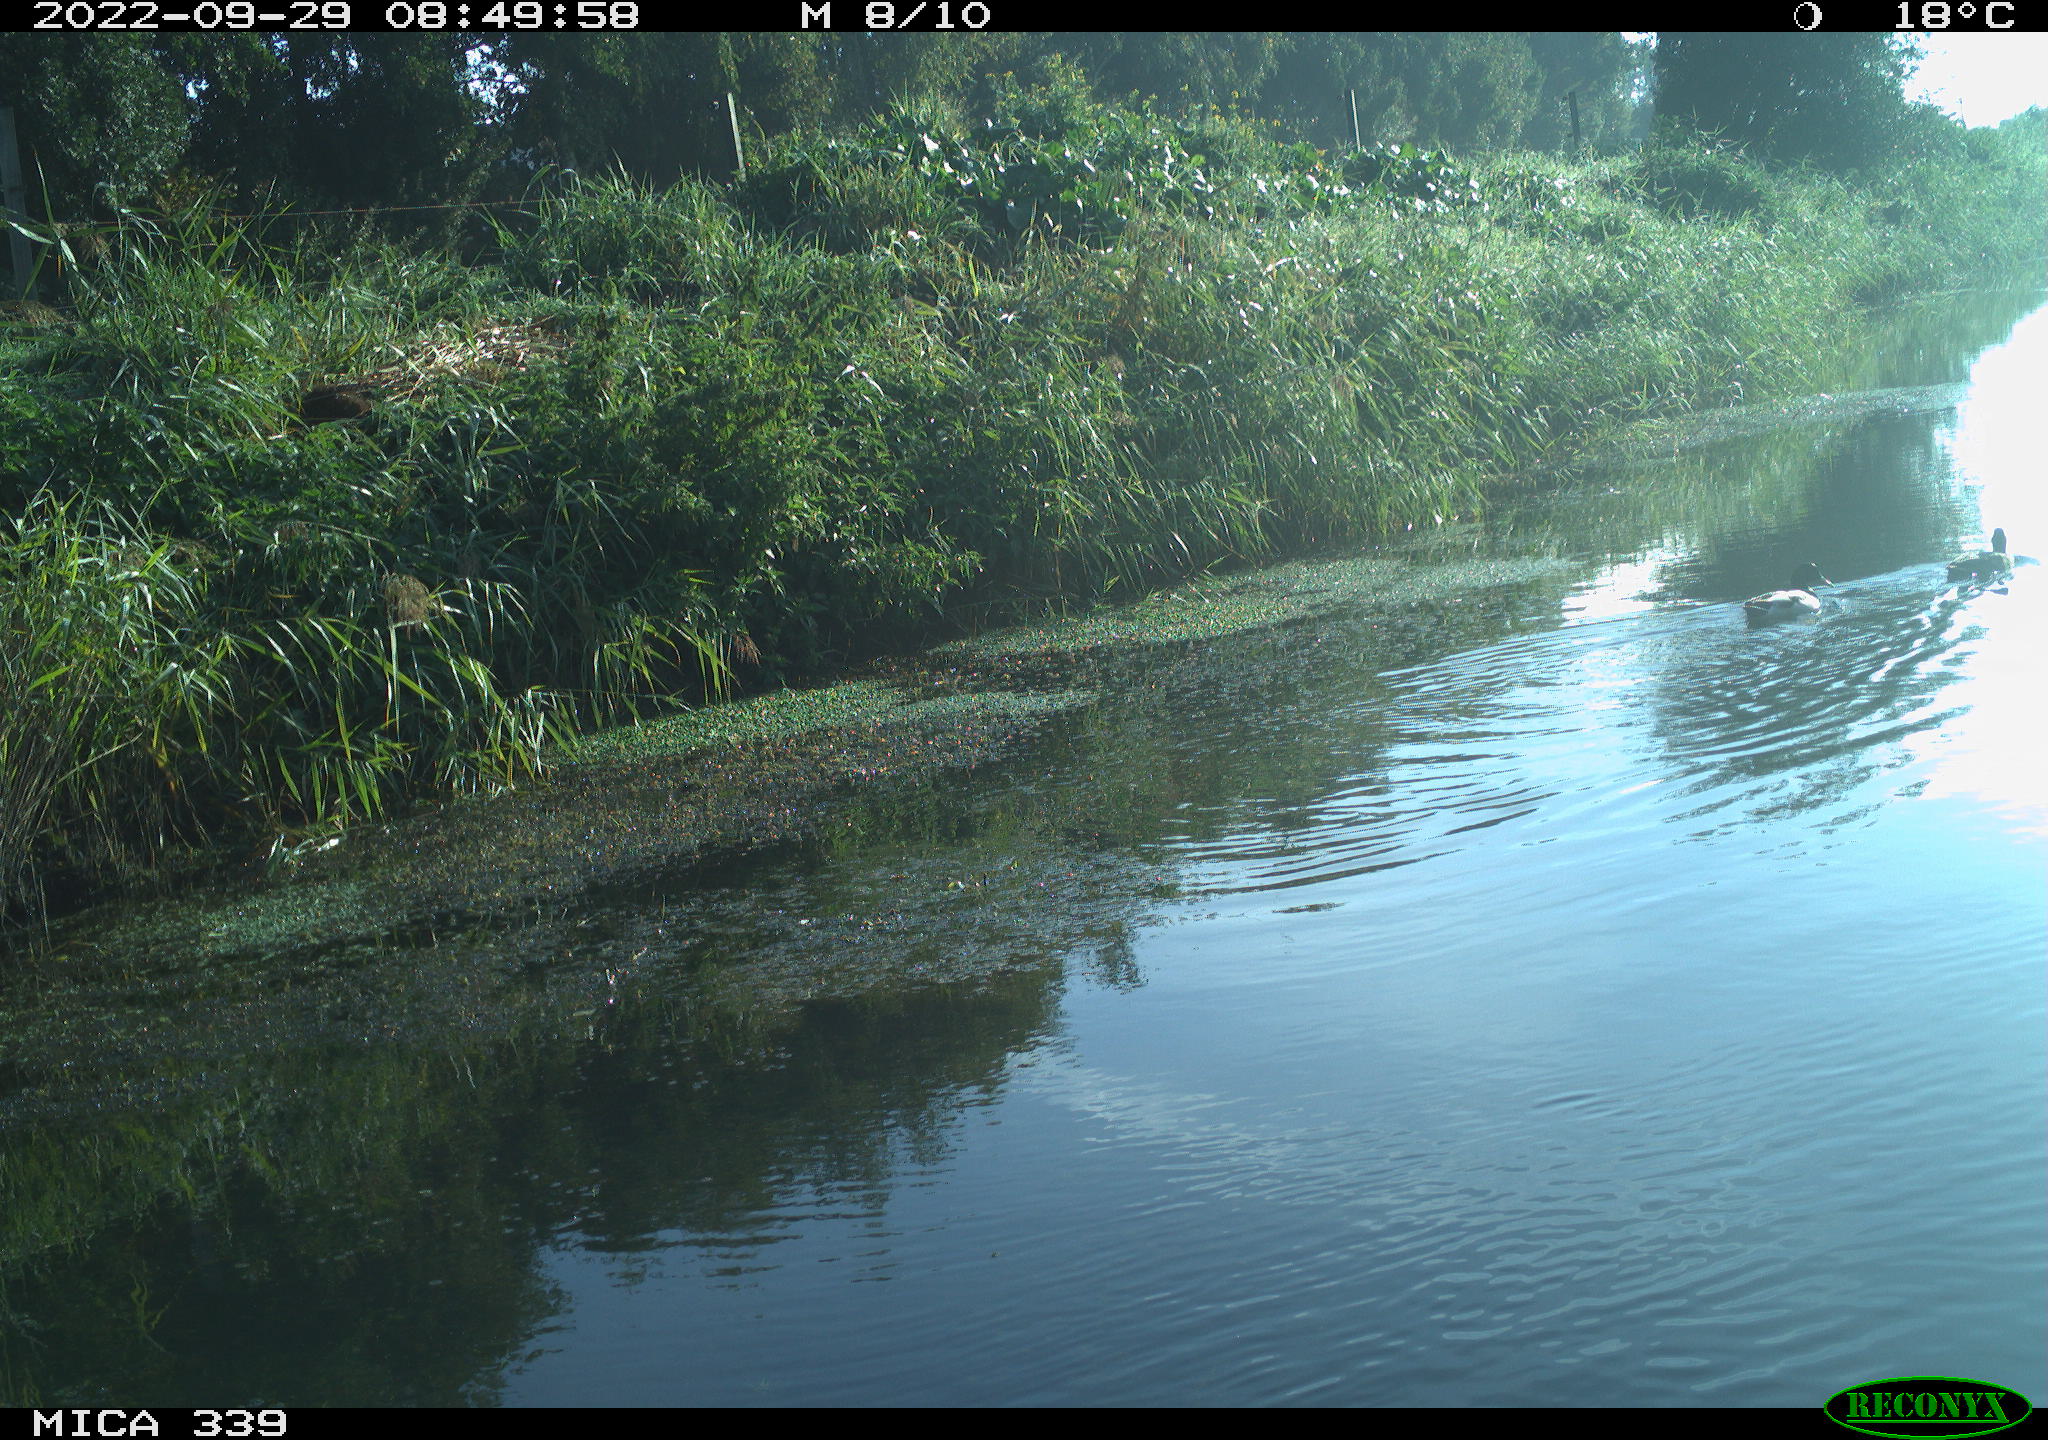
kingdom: Animalia
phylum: Chordata
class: Aves
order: Anseriformes
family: Anatidae
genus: Anas
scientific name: Anas platyrhynchos
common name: Mallard
